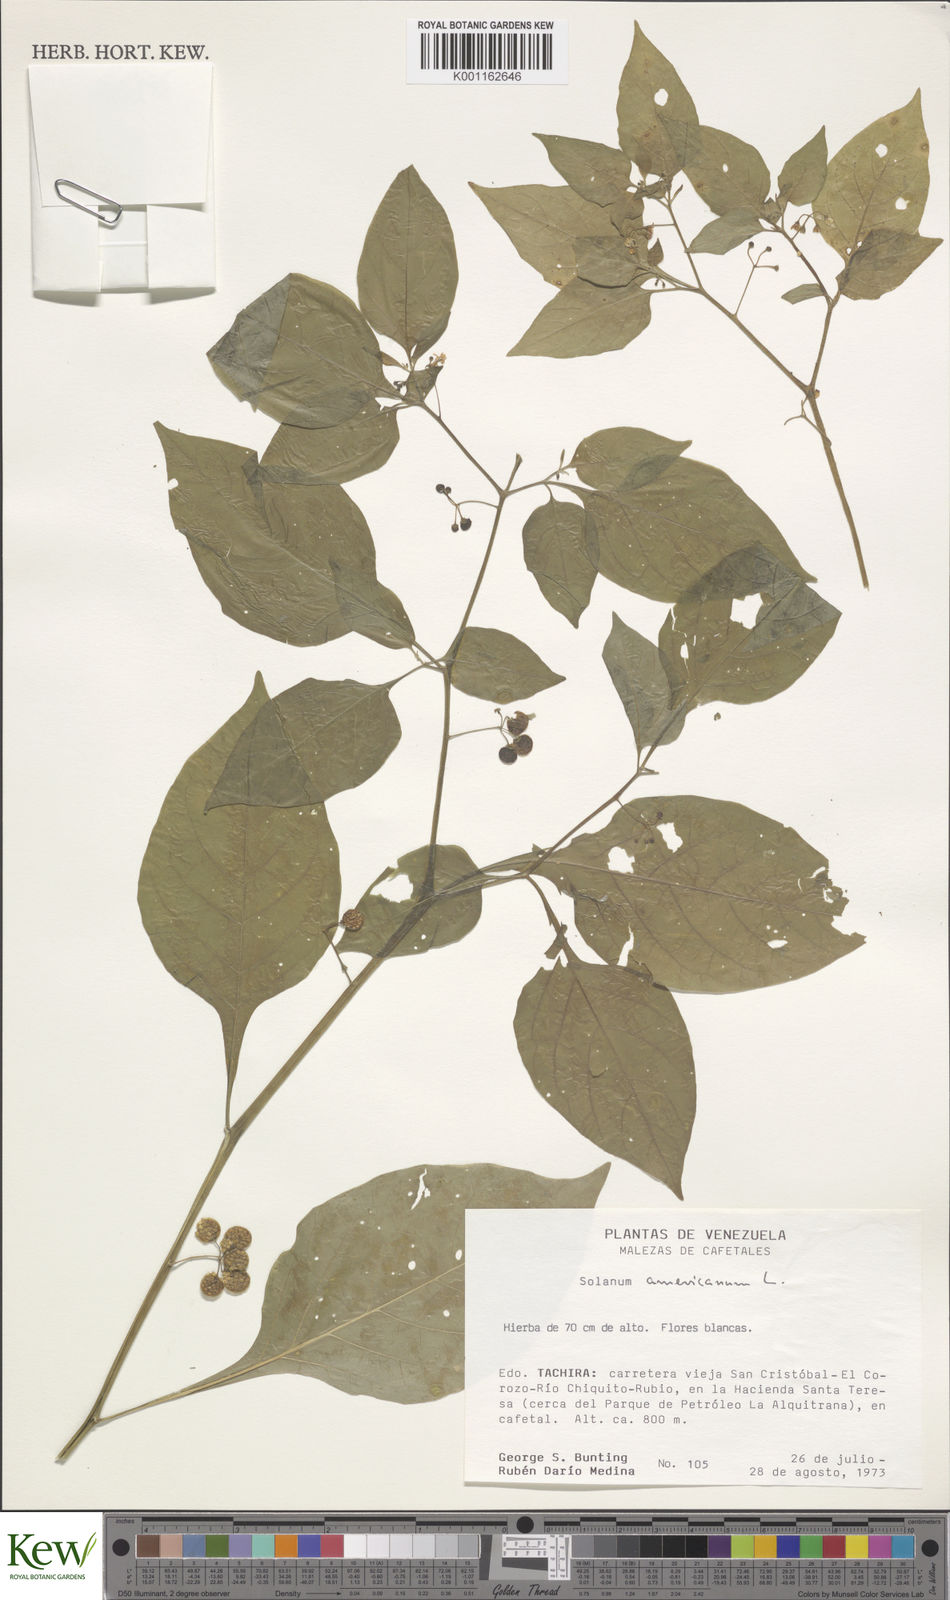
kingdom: Plantae
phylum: Tracheophyta
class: Magnoliopsida
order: Solanales
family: Solanaceae
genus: Solanum
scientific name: Solanum americanum
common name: American black nightshade
